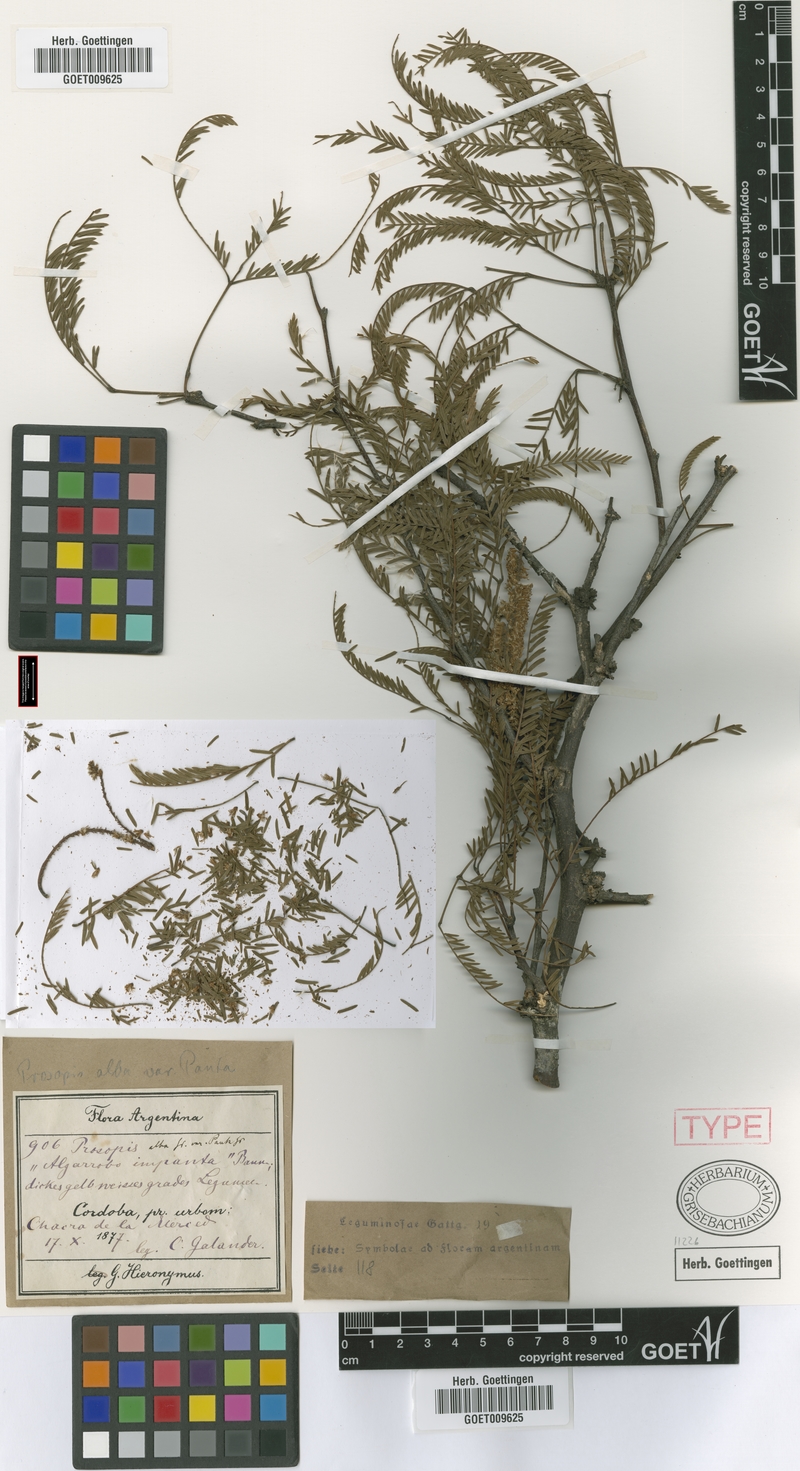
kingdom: Plantae
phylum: Tracheophyta
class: Magnoliopsida
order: Fabales
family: Fabaceae
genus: Prosopis
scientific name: Prosopis alba
